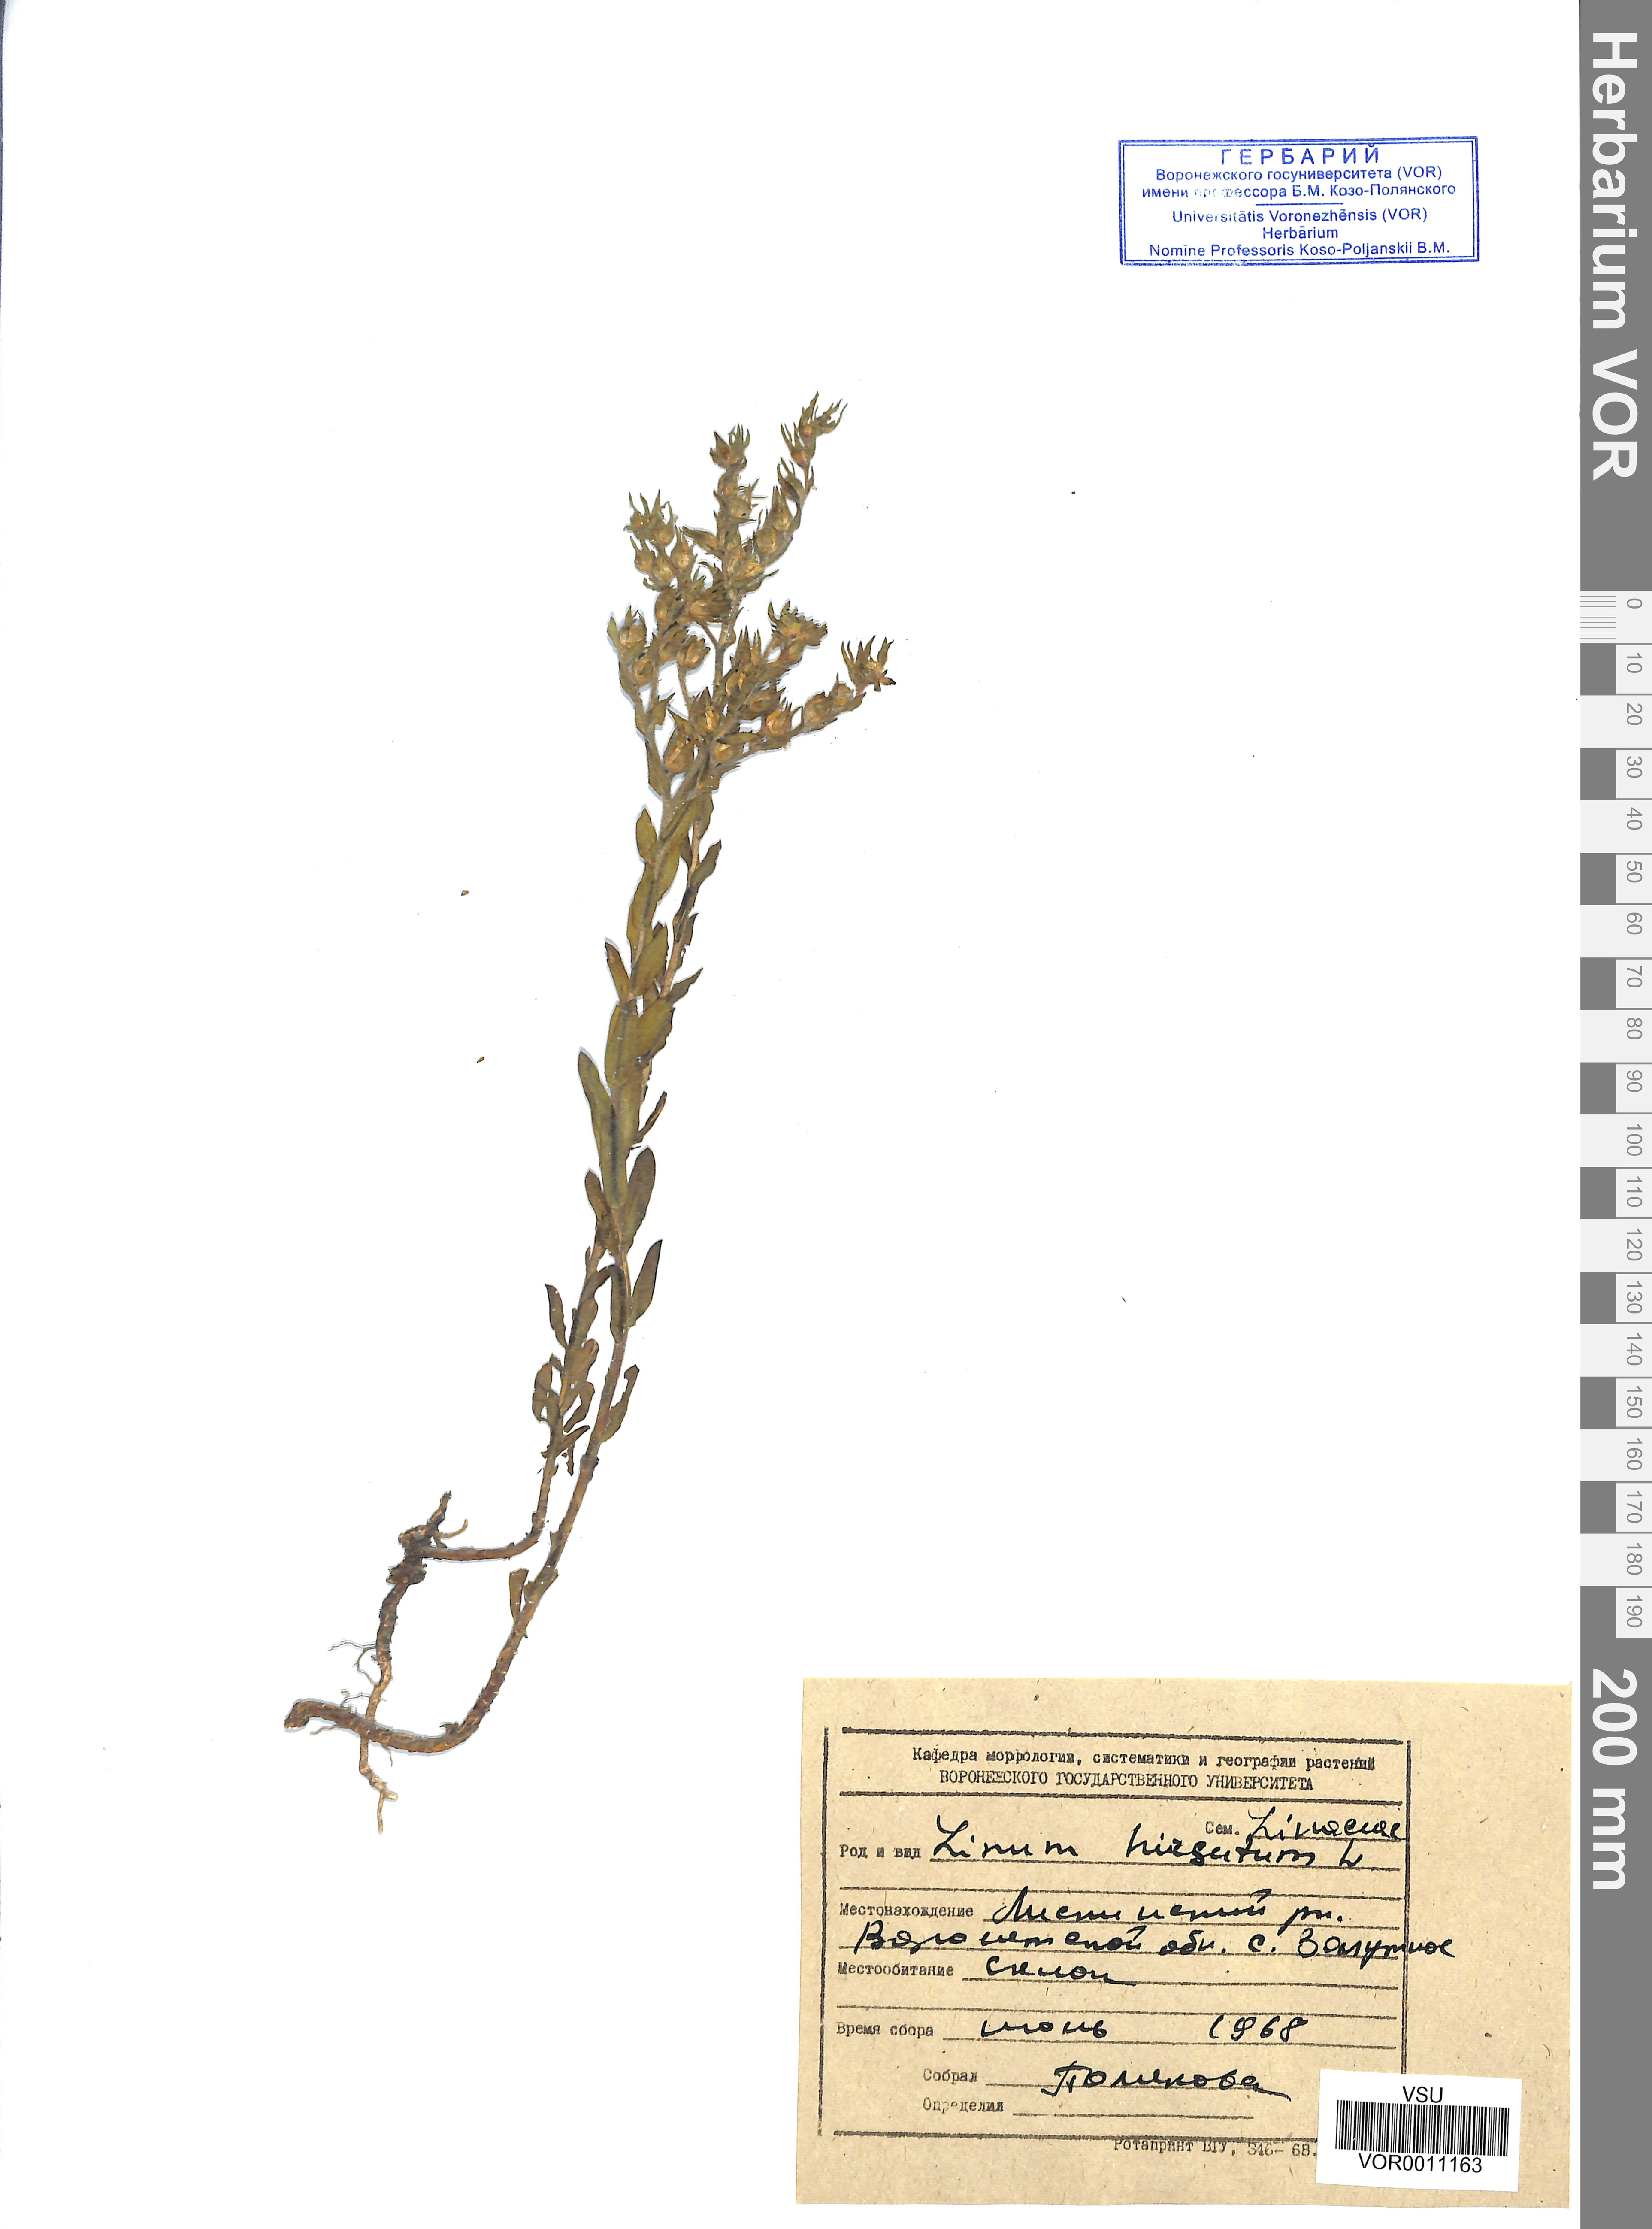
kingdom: Plantae
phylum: Tracheophyta
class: Magnoliopsida
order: Malpighiales
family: Linaceae
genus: Linum
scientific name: Linum hirsutum
